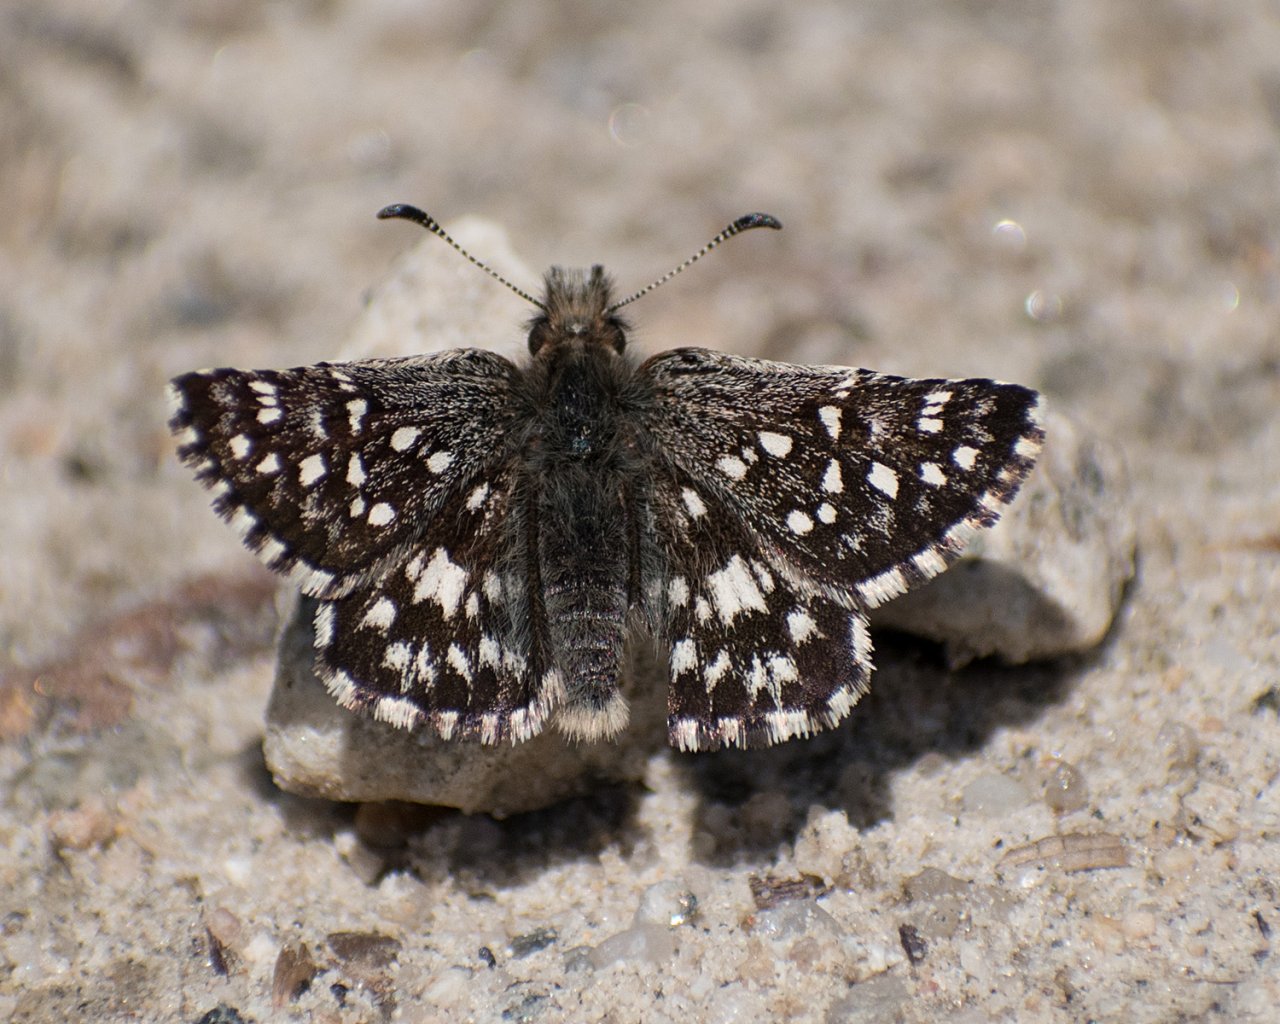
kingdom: Animalia
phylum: Arthropoda
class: Insecta
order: Lepidoptera
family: Hesperiidae
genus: Pyrgus
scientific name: Pyrgus ruralis
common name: Two-banded Checkered-Skipper
